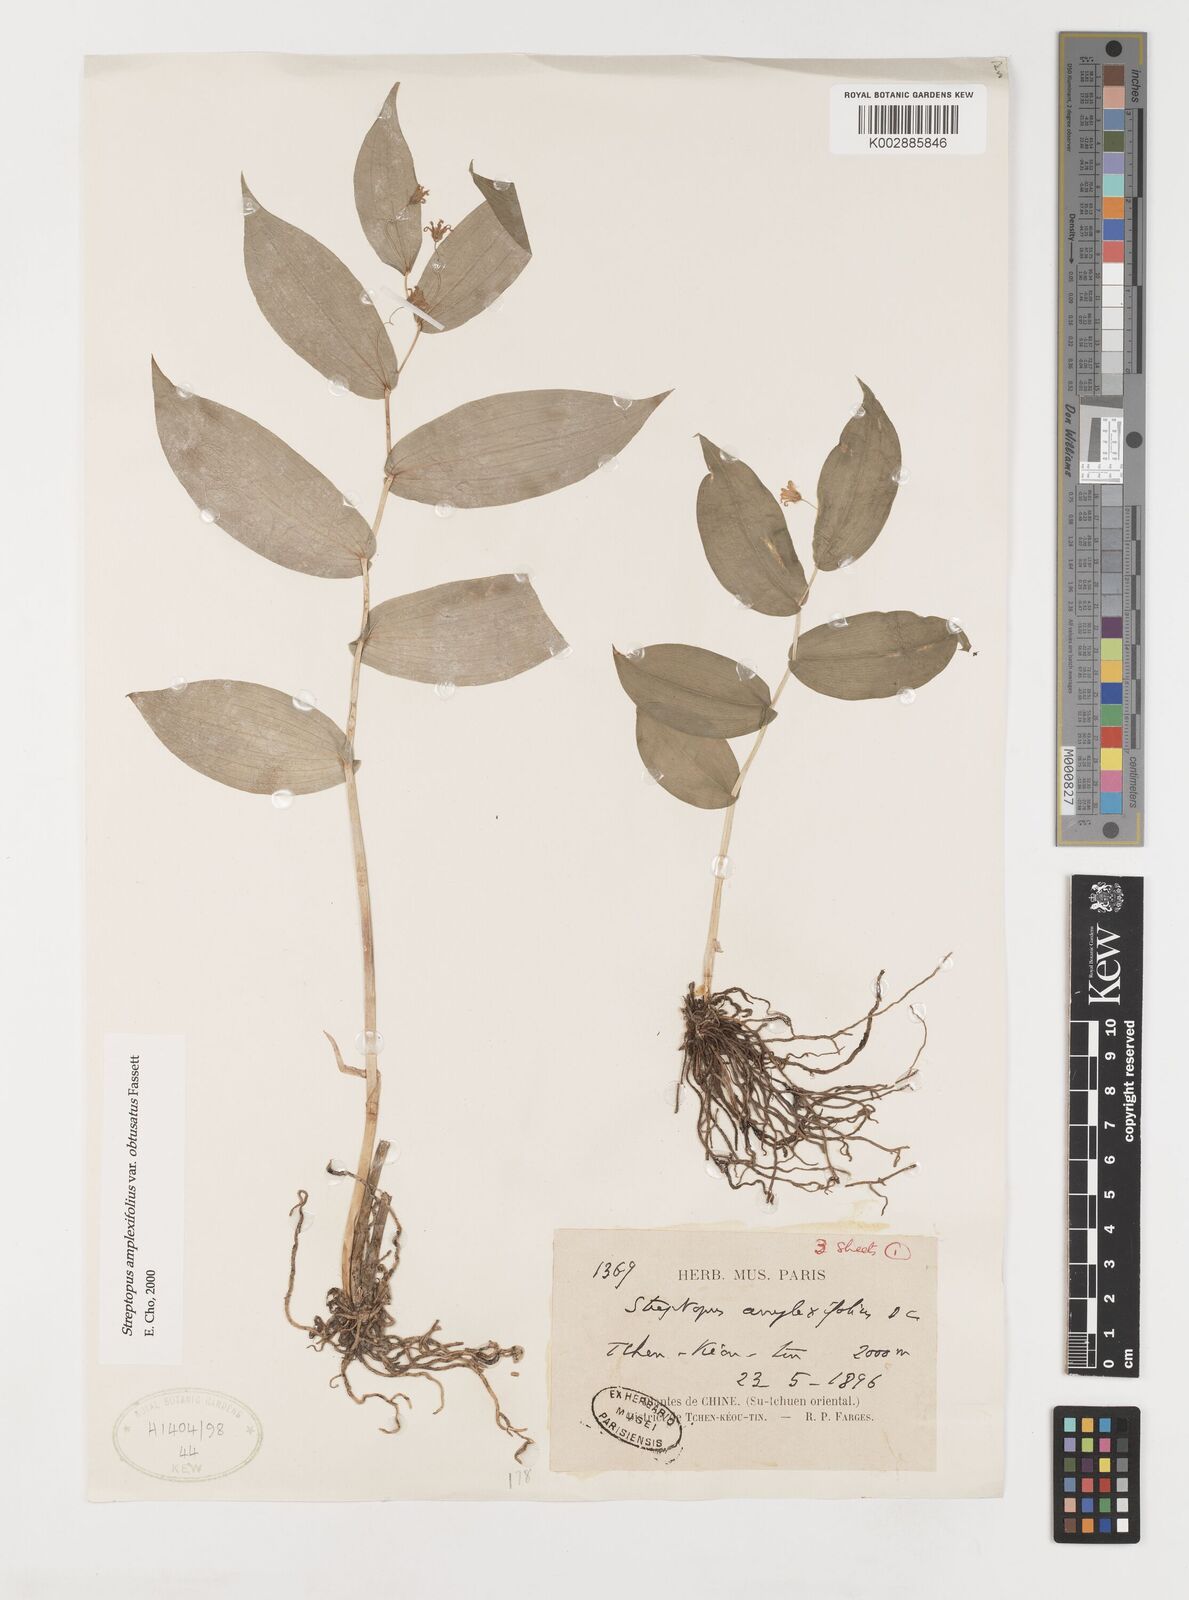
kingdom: Plantae
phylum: Tracheophyta
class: Liliopsida
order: Liliales
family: Liliaceae
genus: Streptopus
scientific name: Streptopus amplexifolius
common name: Clasp twisted stalk
